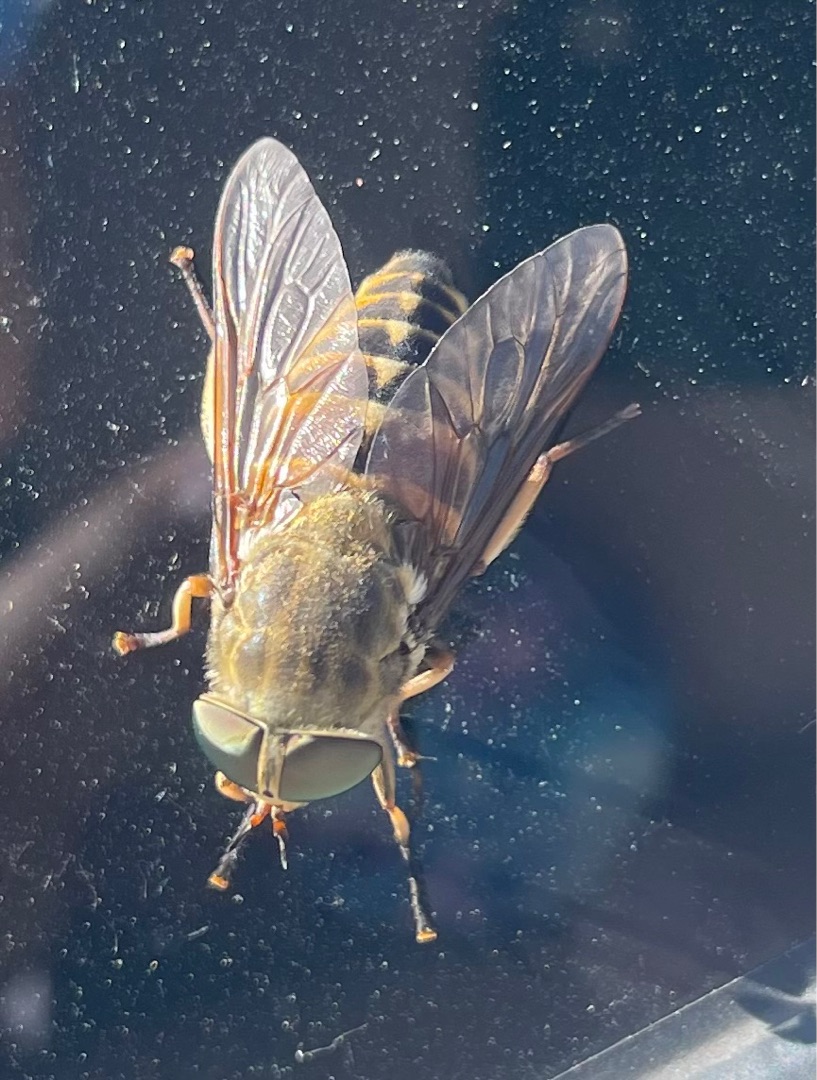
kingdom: Animalia
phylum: Arthropoda
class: Insecta
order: Diptera
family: Tabanidae
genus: Tabanus
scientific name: Tabanus sudeticus
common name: Hesteklæg
